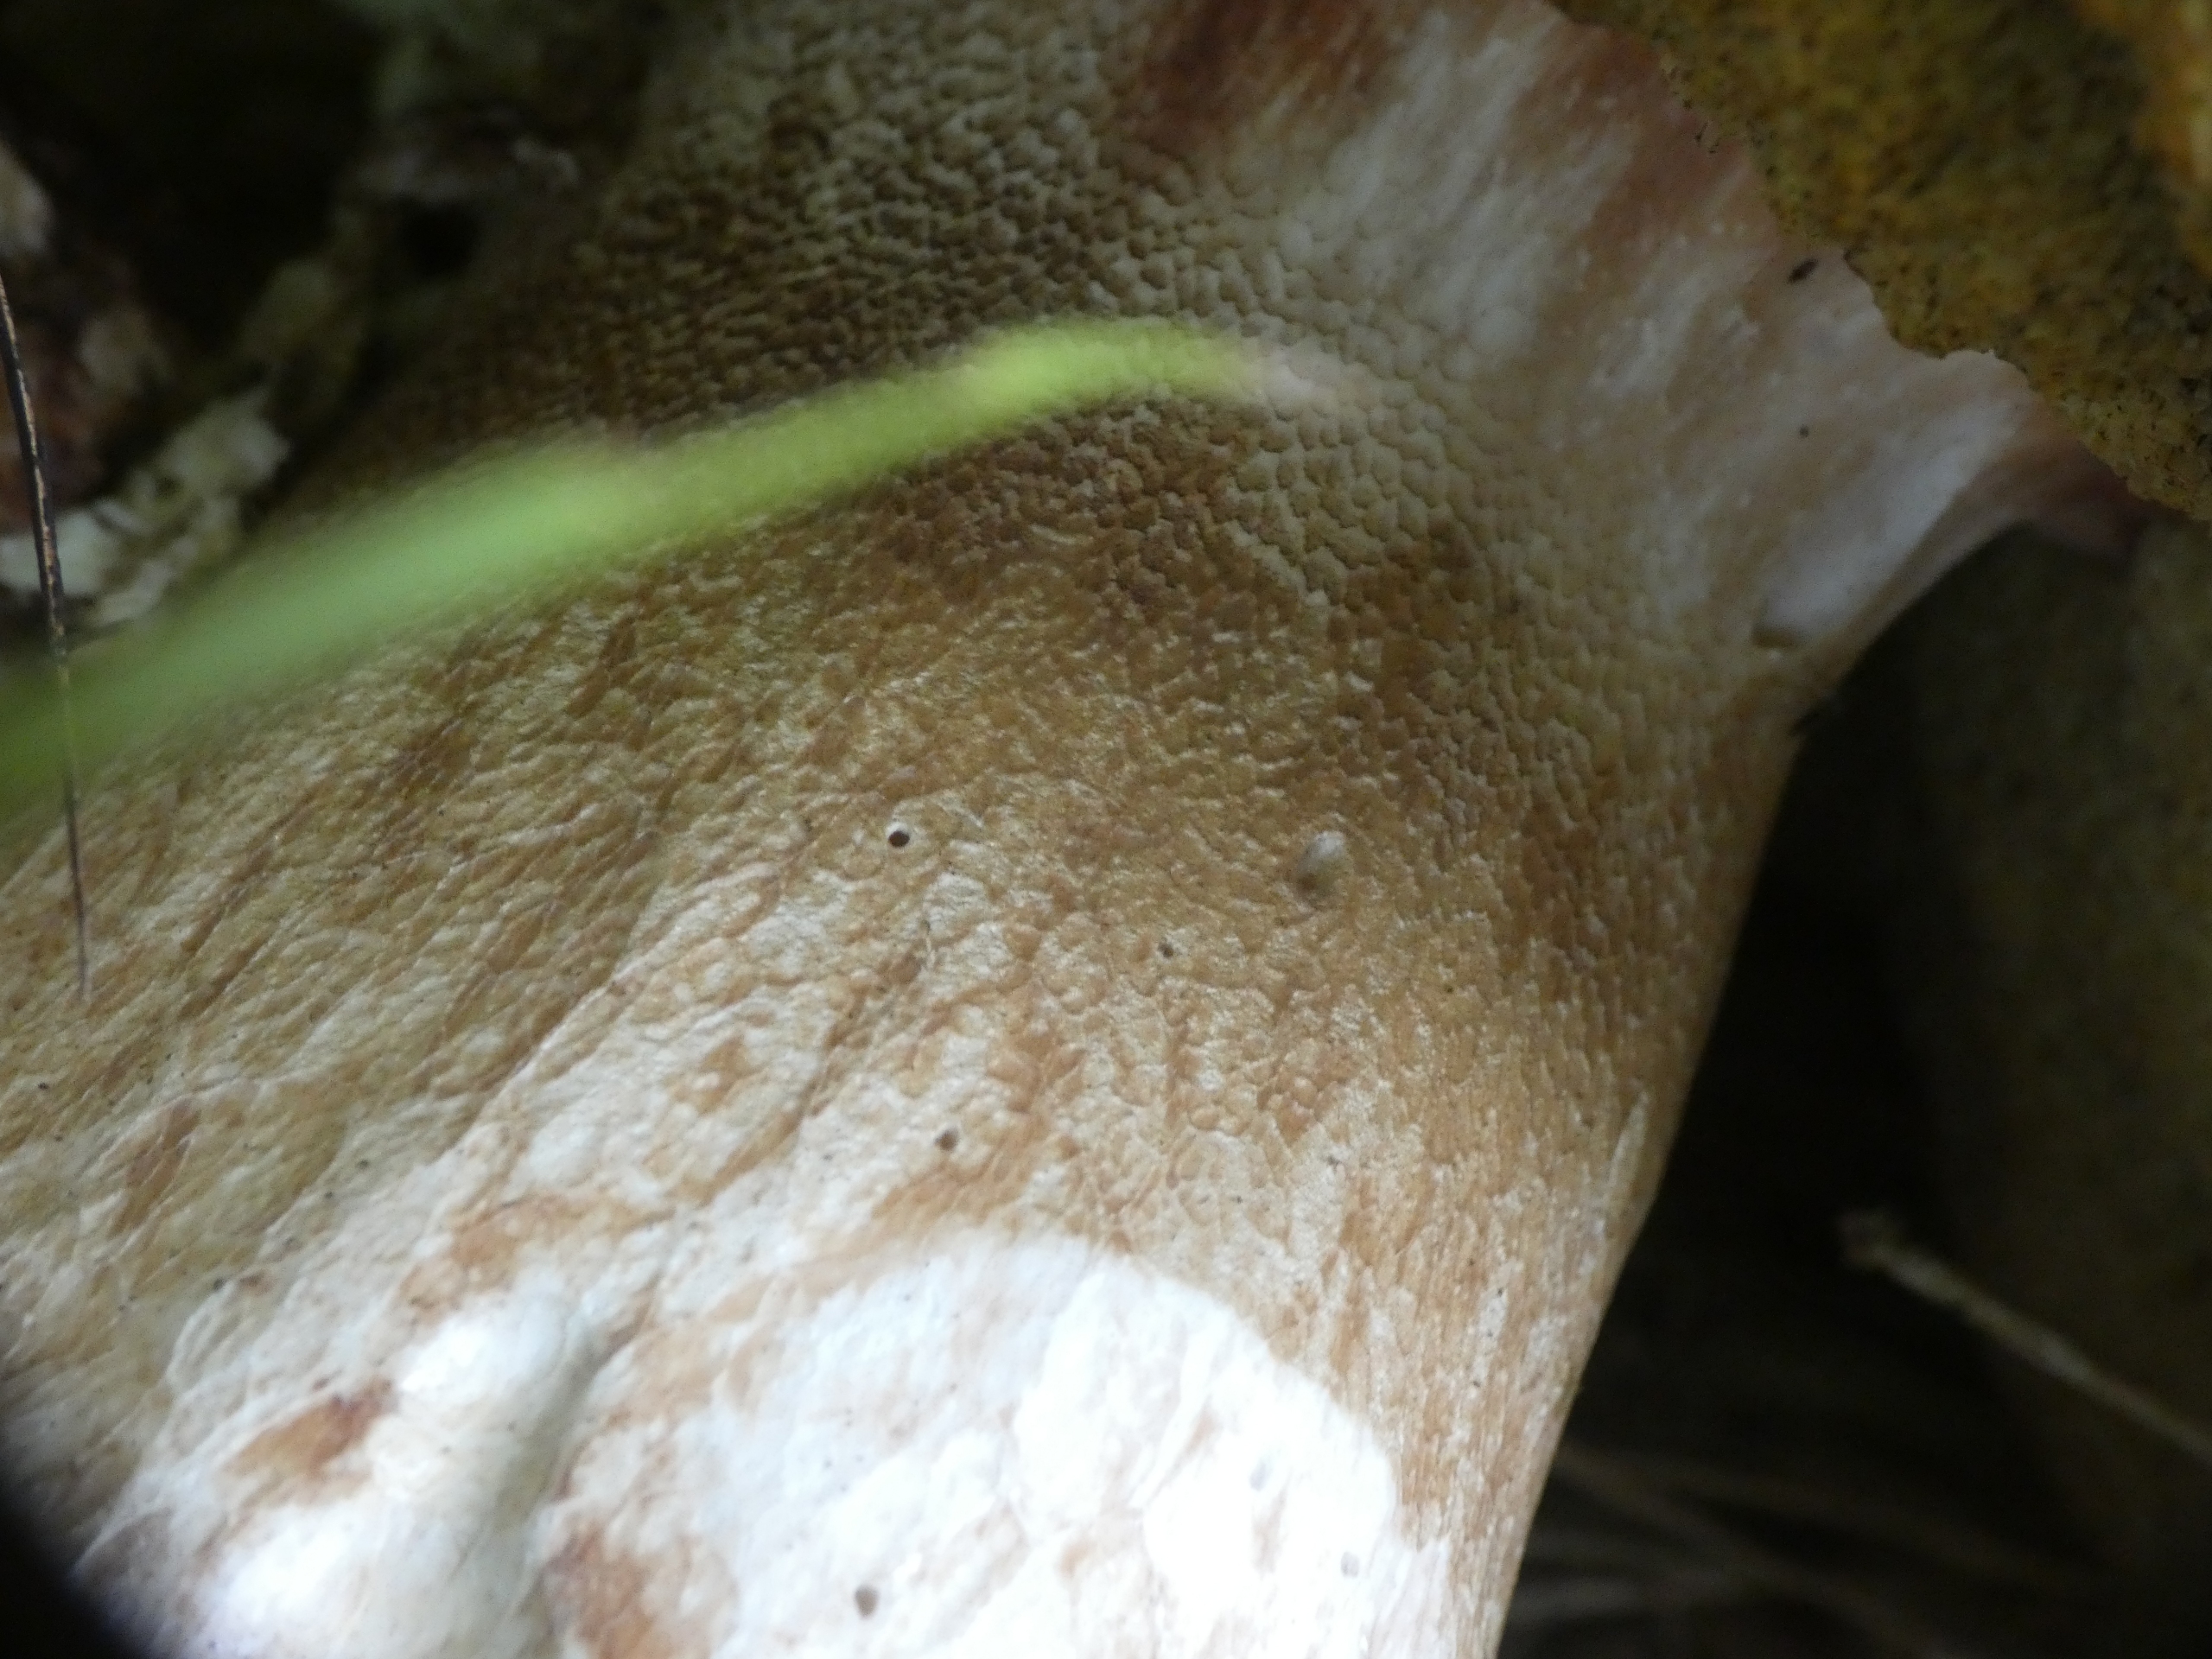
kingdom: Fungi
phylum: Basidiomycota
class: Agaricomycetes
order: Boletales
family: Boletaceae
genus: Boletus
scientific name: Boletus edulis
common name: Spiselig rørhat/karl johan
